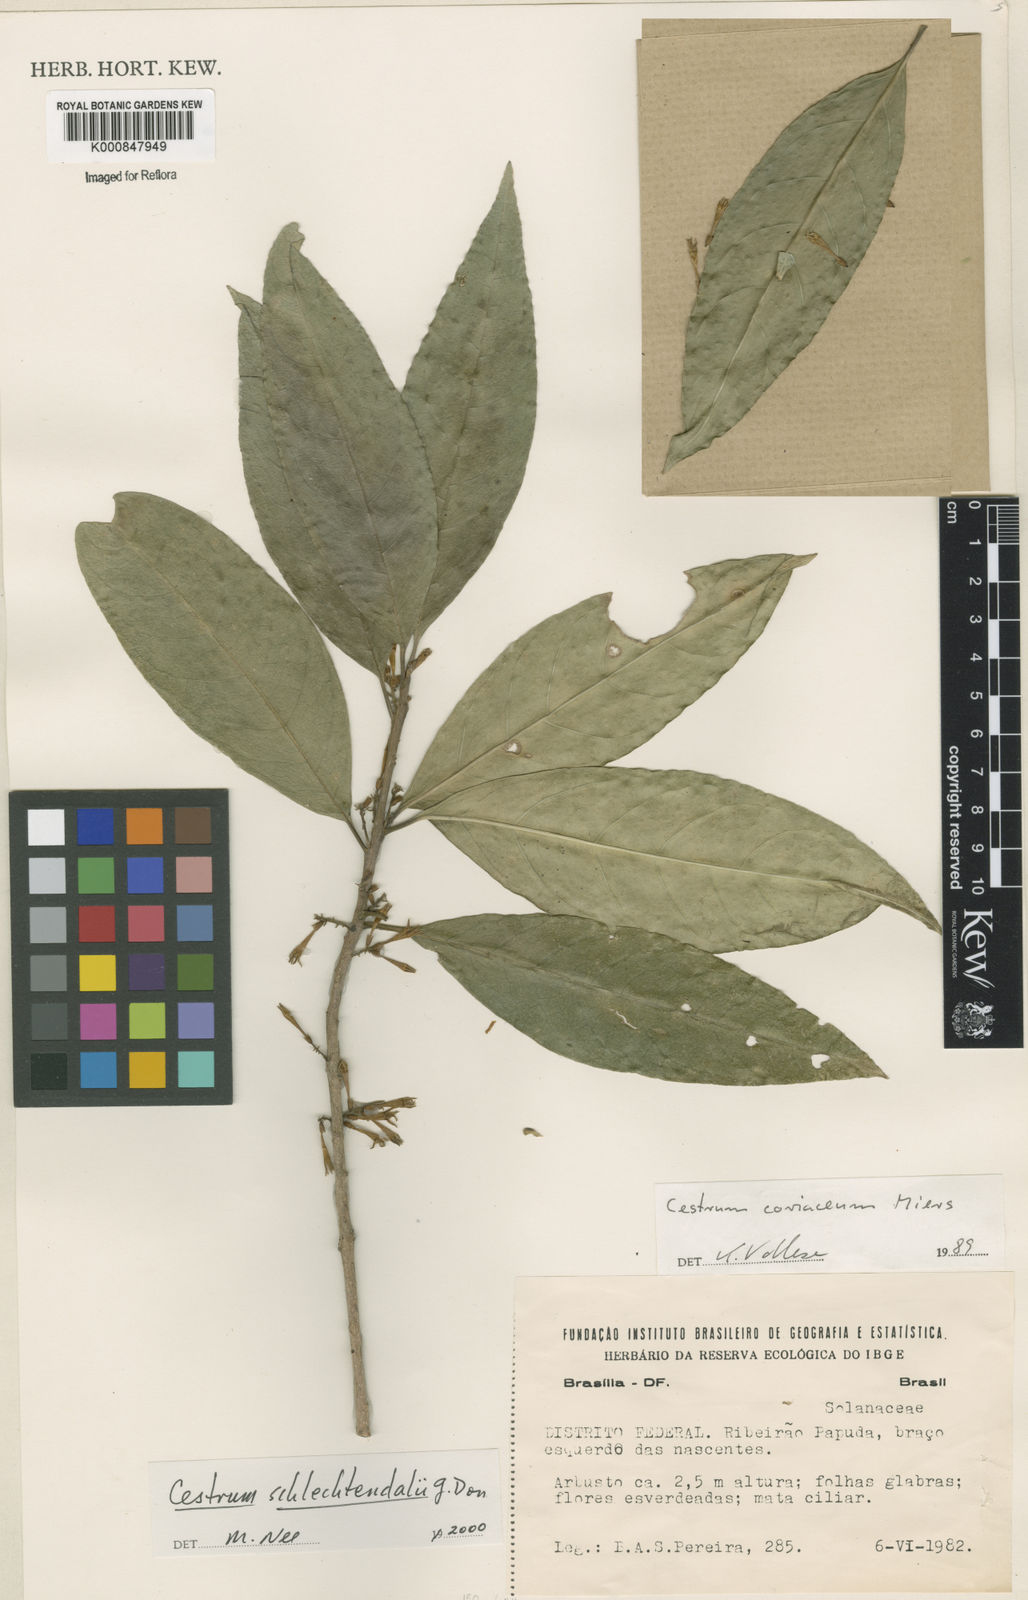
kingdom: Plantae
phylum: Tracheophyta
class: Magnoliopsida
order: Solanales
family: Solanaceae
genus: Cestrum
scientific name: Cestrum schlechtendalii
